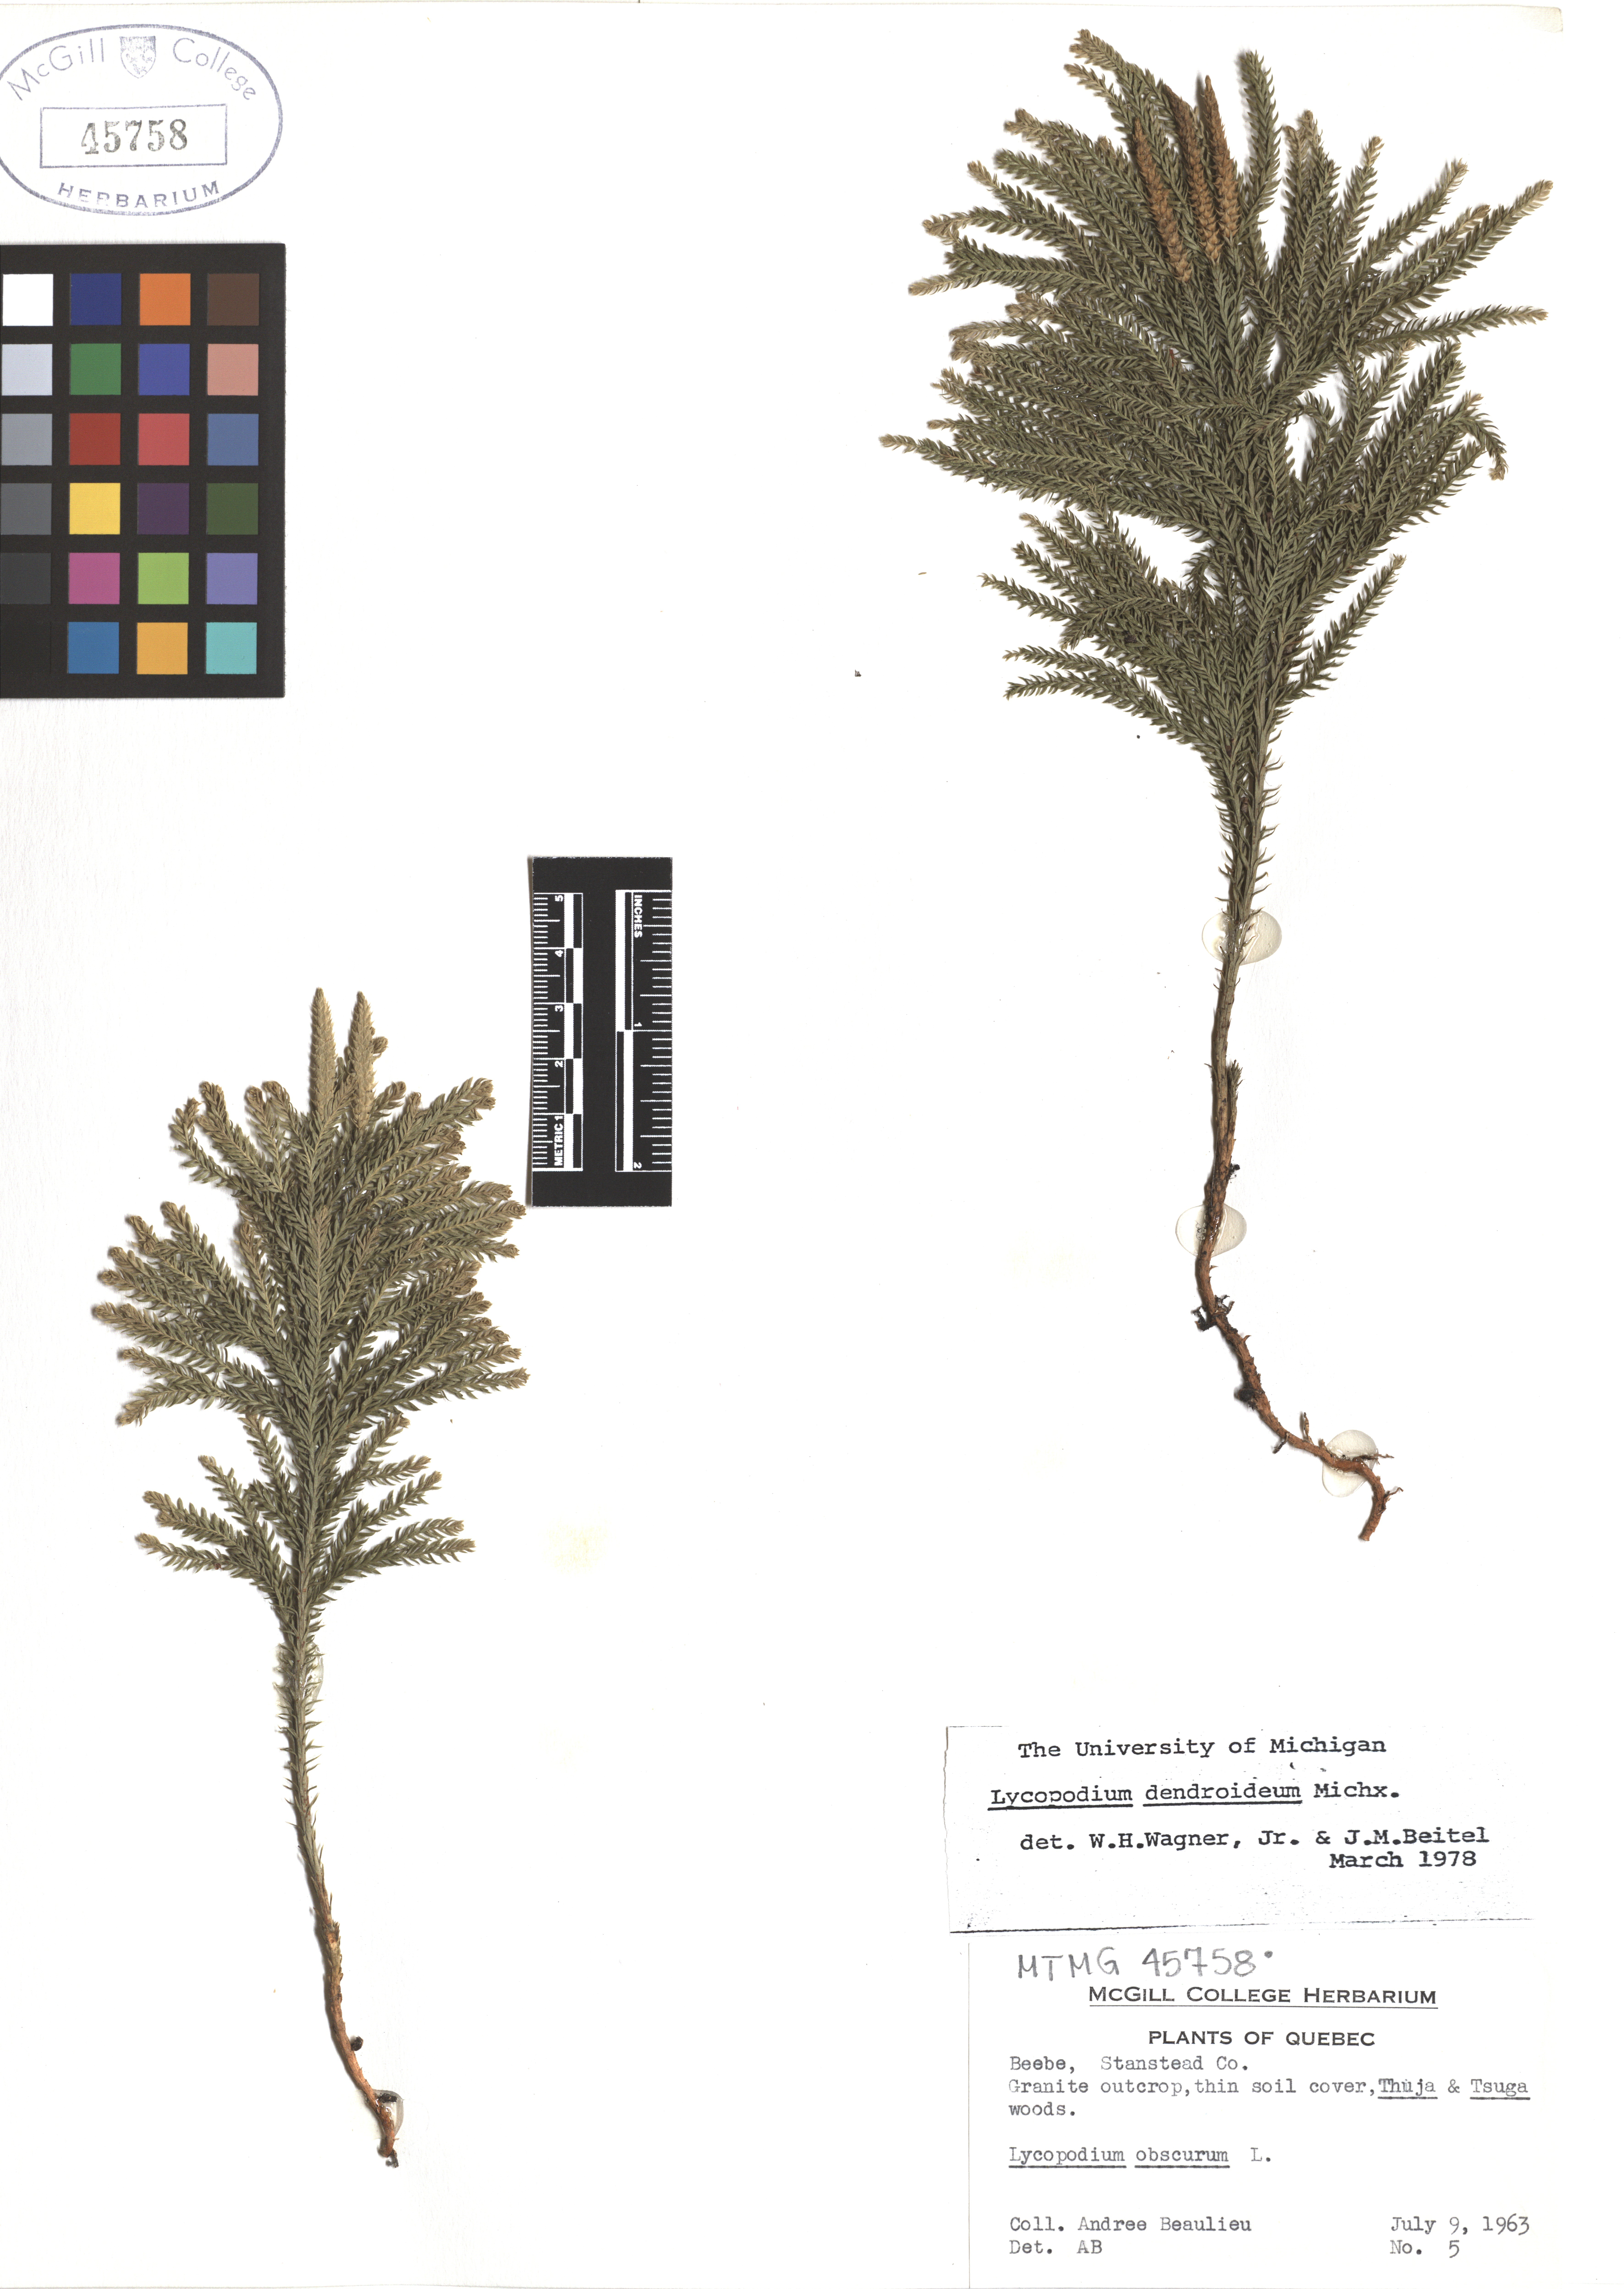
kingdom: Plantae
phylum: Tracheophyta
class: Lycopodiopsida
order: Lycopodiales
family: Lycopodiaceae
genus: Dendrolycopodium
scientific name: Dendrolycopodium dendroideum
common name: Northern tree-clubmoss
